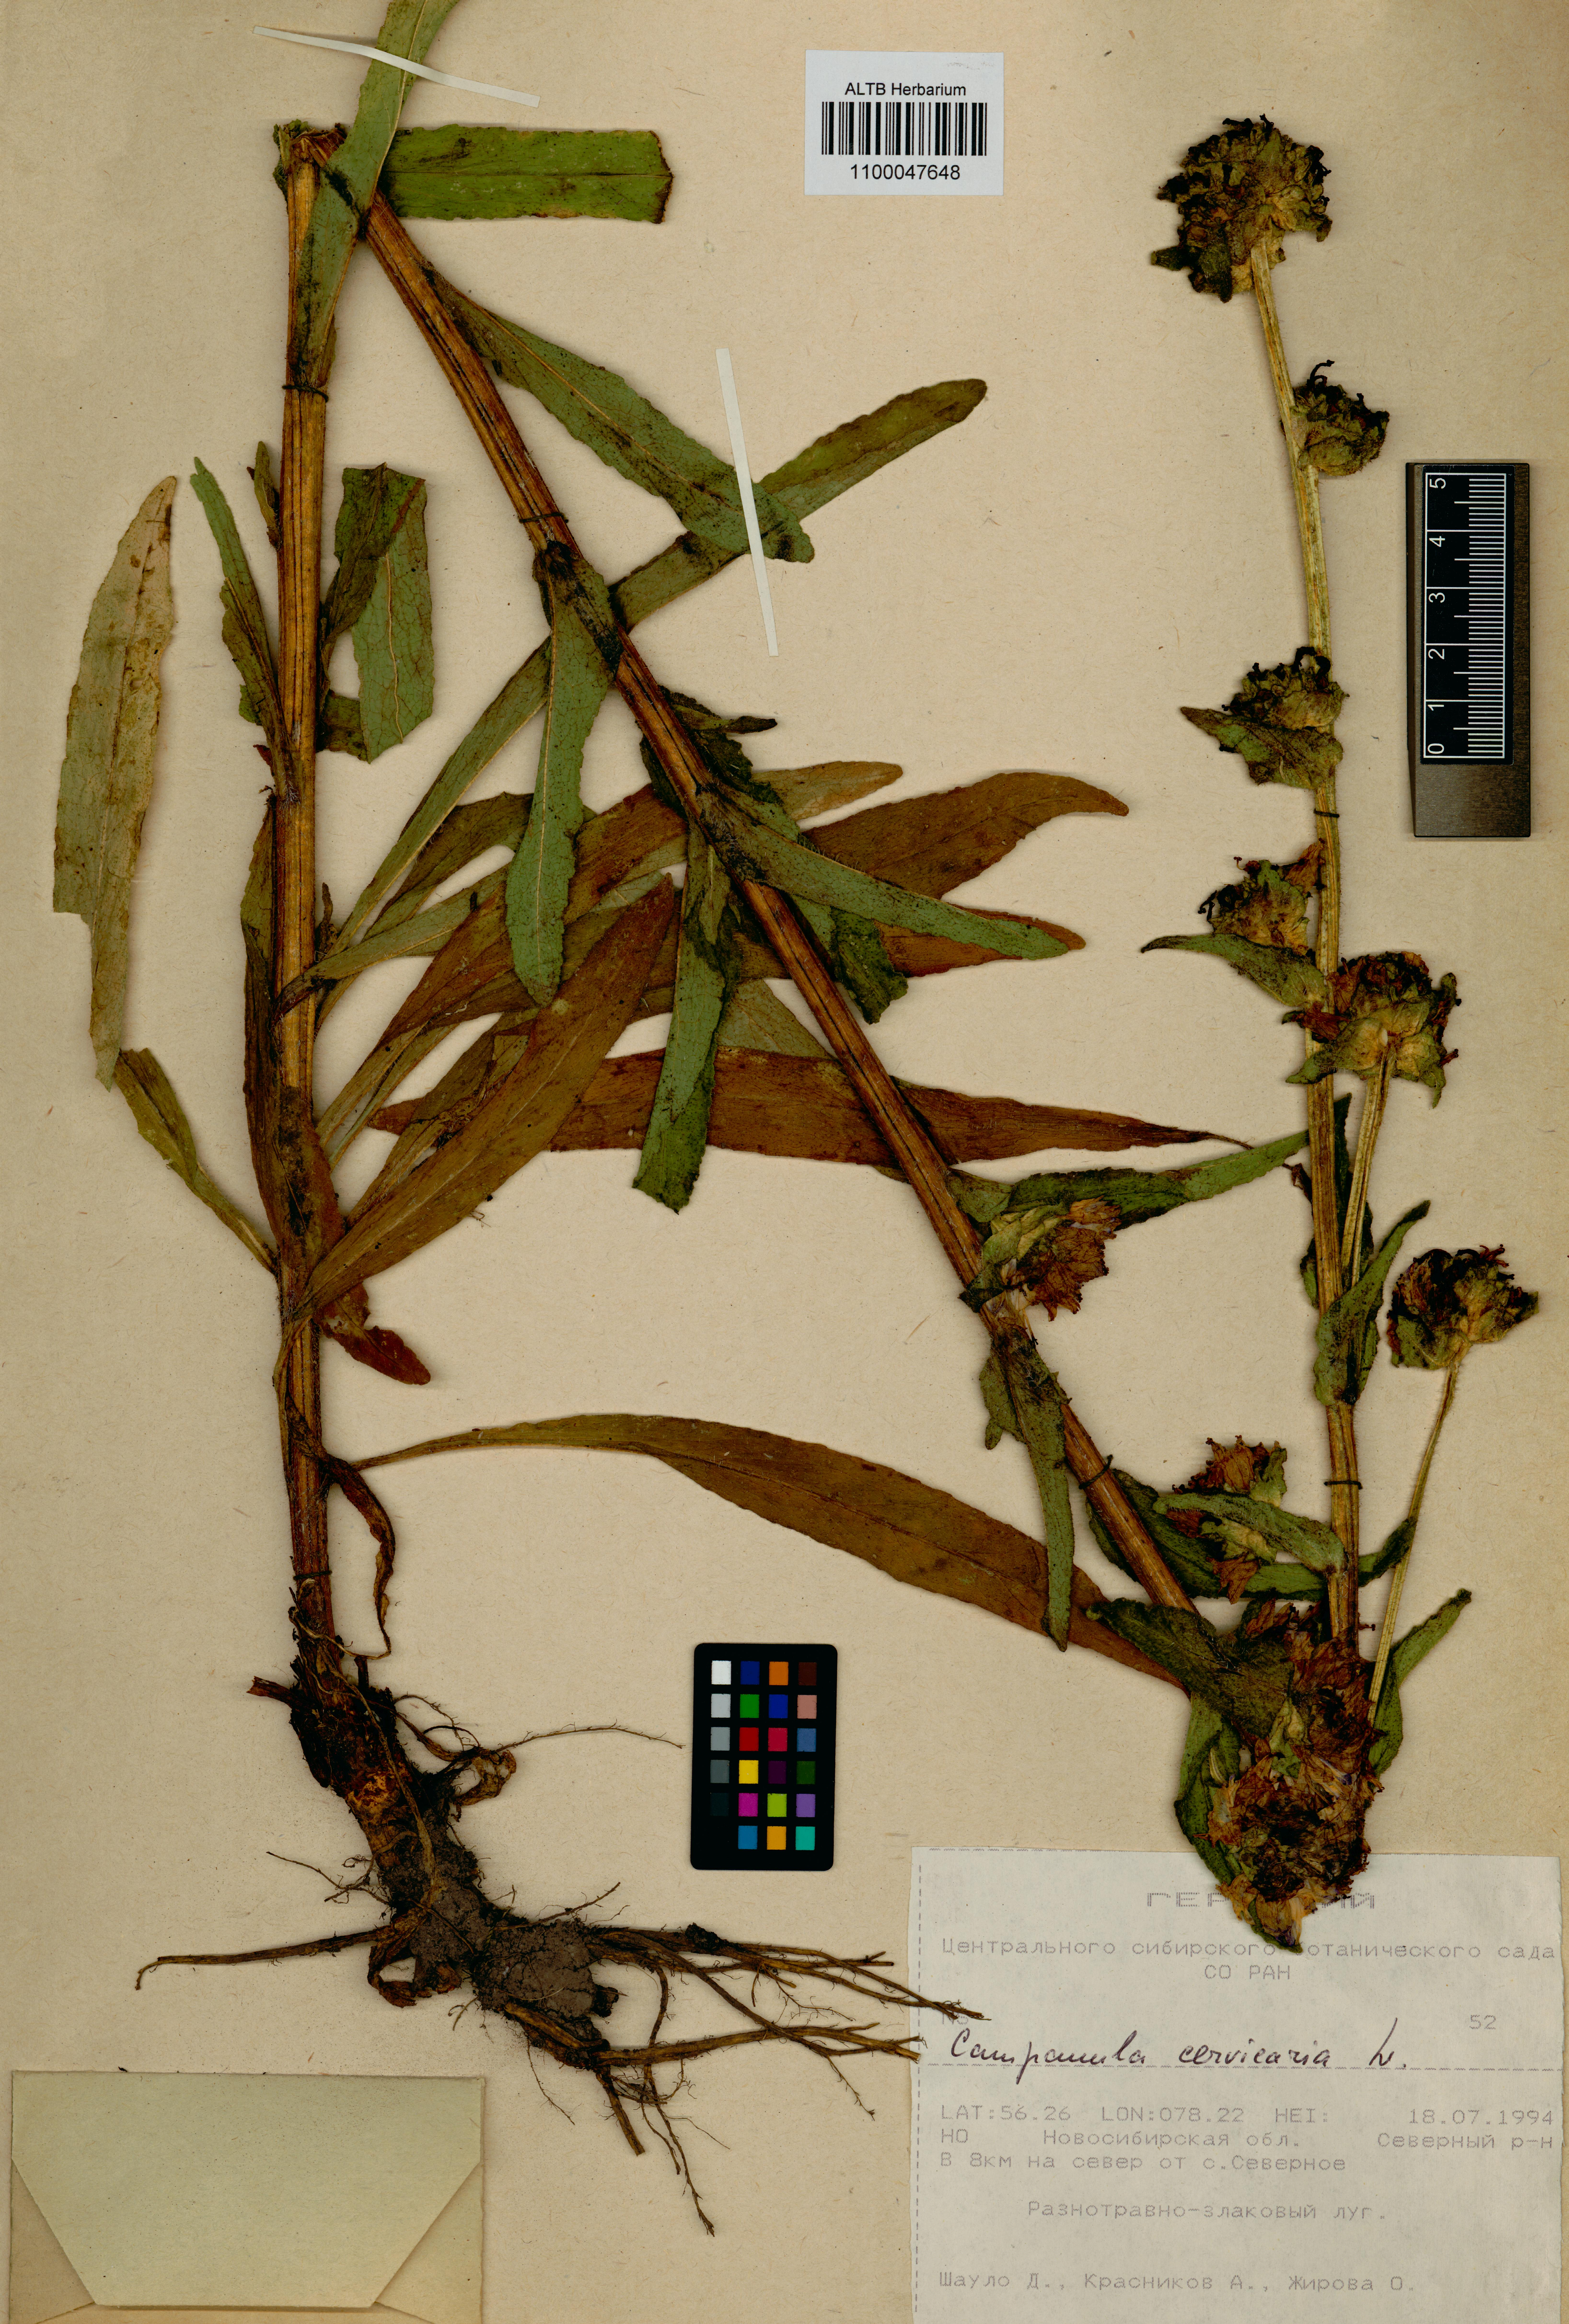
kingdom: Plantae
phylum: Tracheophyta
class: Magnoliopsida
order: Asterales
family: Campanulaceae
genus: Campanula
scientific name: Campanula cervicaria
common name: Bristly bellflower
